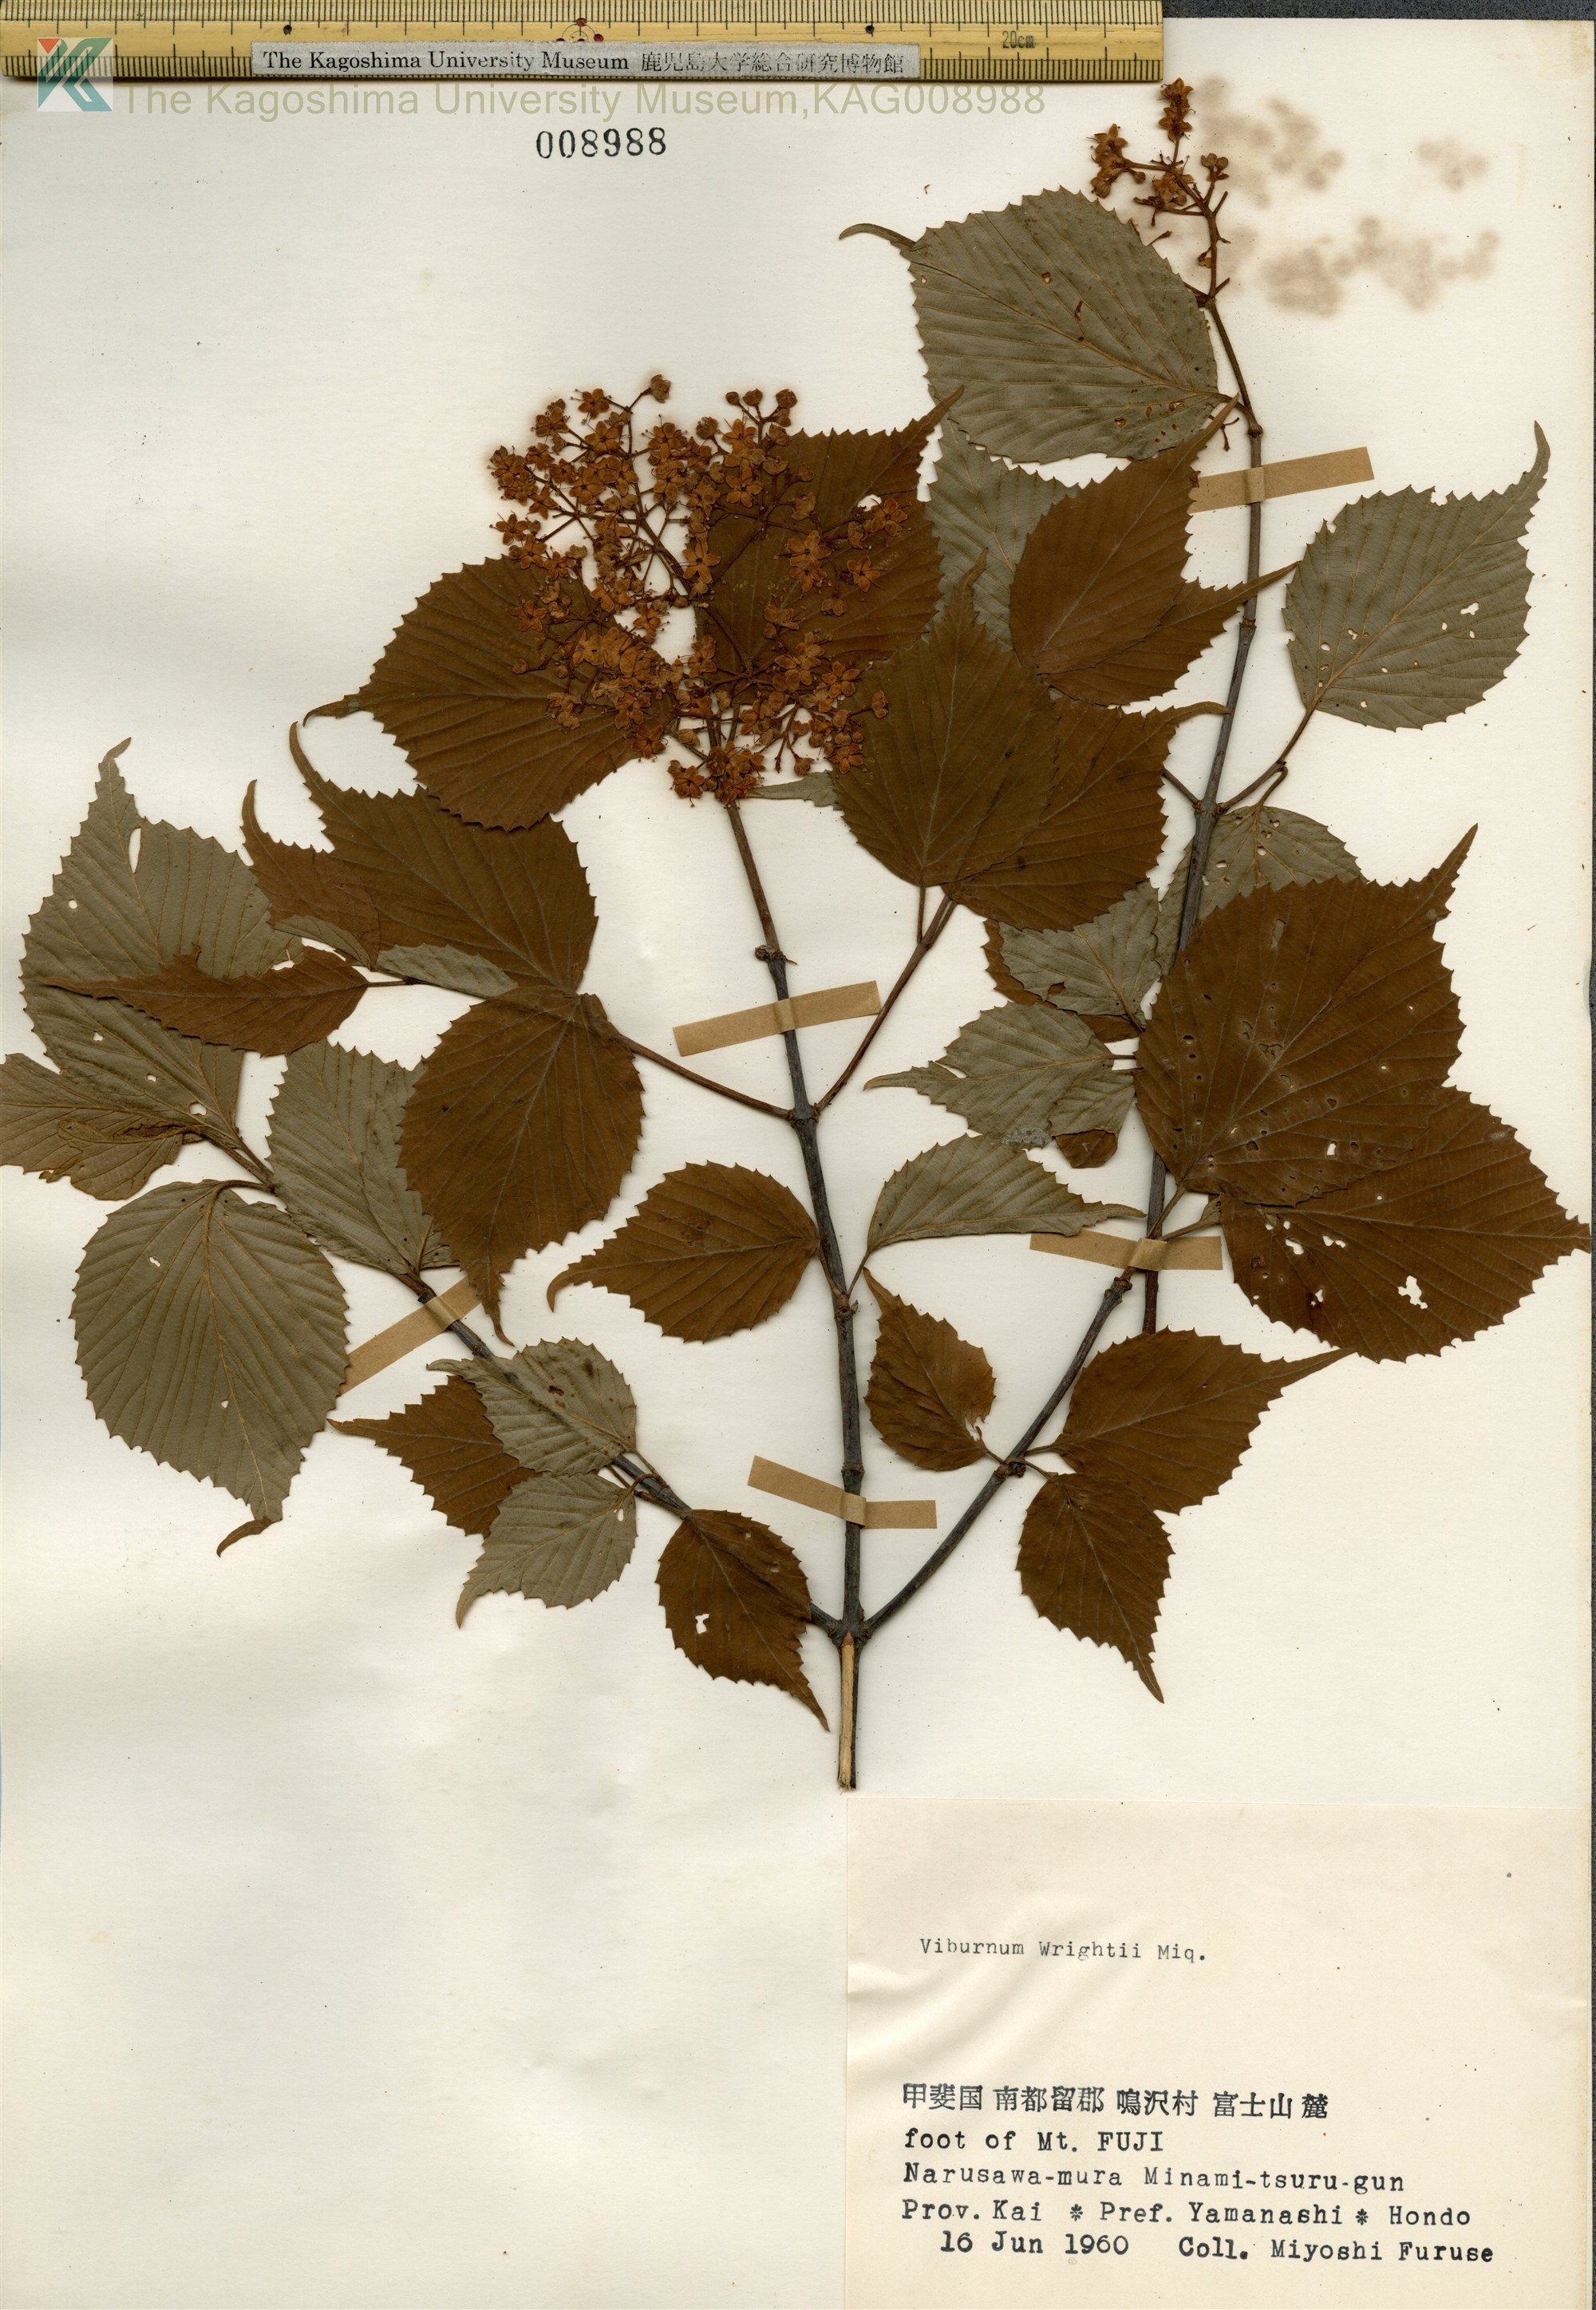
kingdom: Plantae
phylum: Tracheophyta
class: Magnoliopsida
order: Dipsacales
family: Viburnaceae
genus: Viburnum
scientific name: Viburnum wrightii
